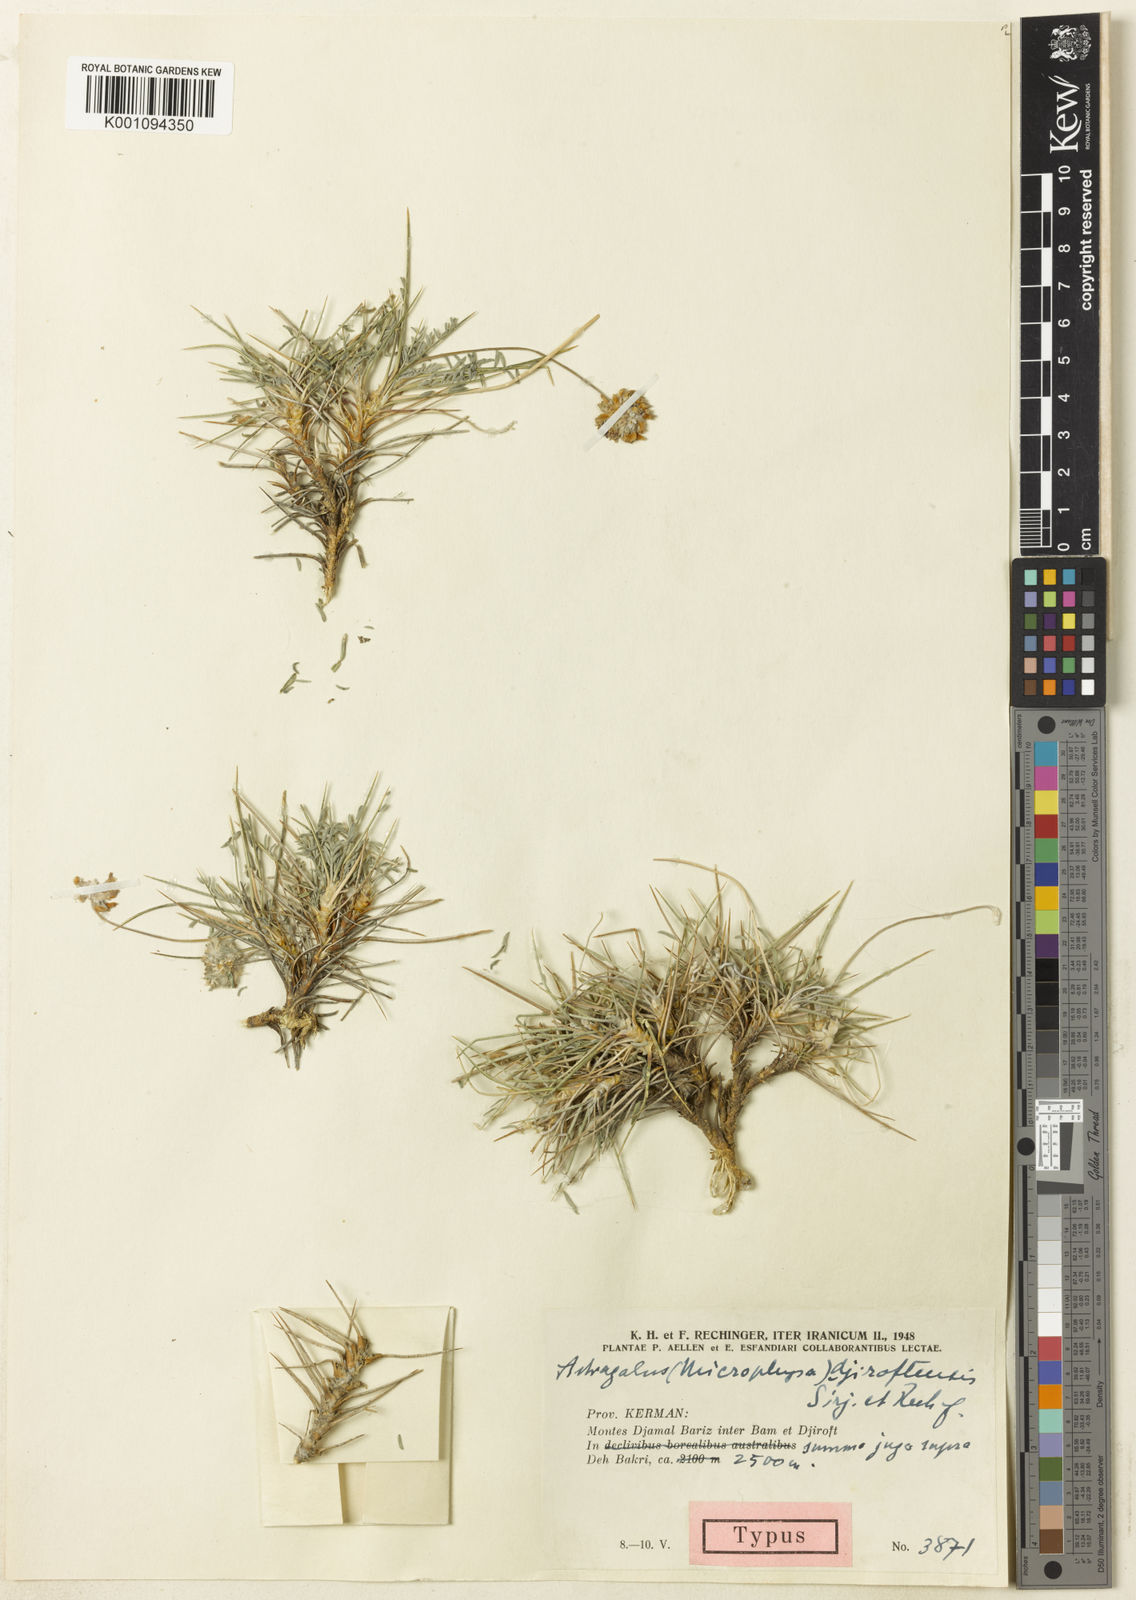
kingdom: Plantae
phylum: Tracheophyta
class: Magnoliopsida
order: Fabales
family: Fabaceae
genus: Astragalus
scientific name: Astragalus
